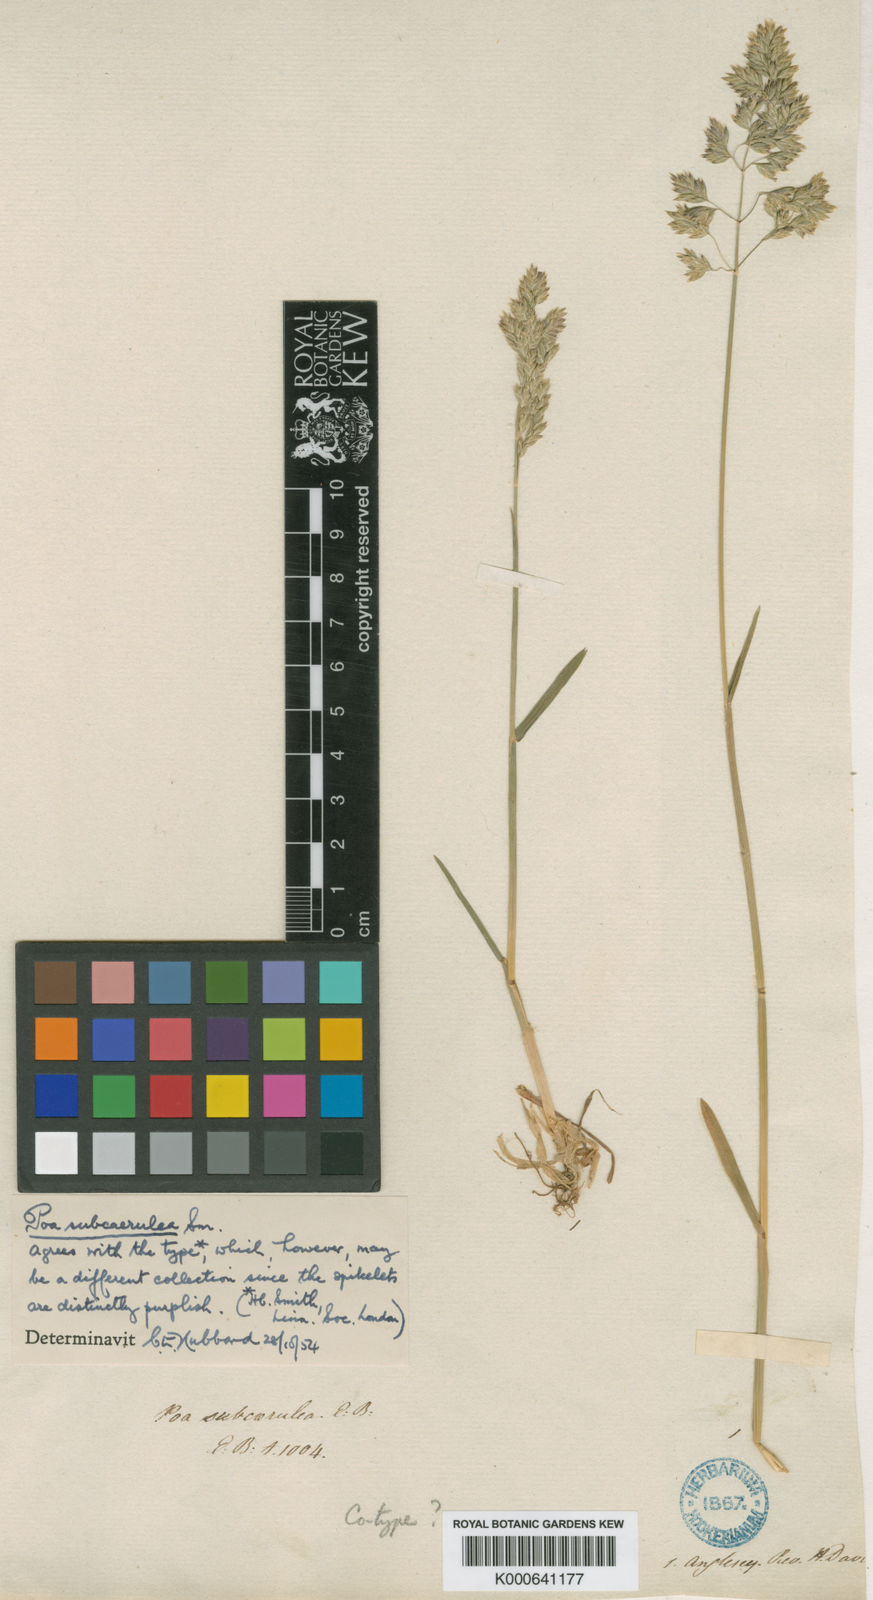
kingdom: Plantae
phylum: Tracheophyta
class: Liliopsida
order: Poales
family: Poaceae
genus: Poa
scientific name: Poa angustifolia
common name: Narrow-leaved meadow-grass
